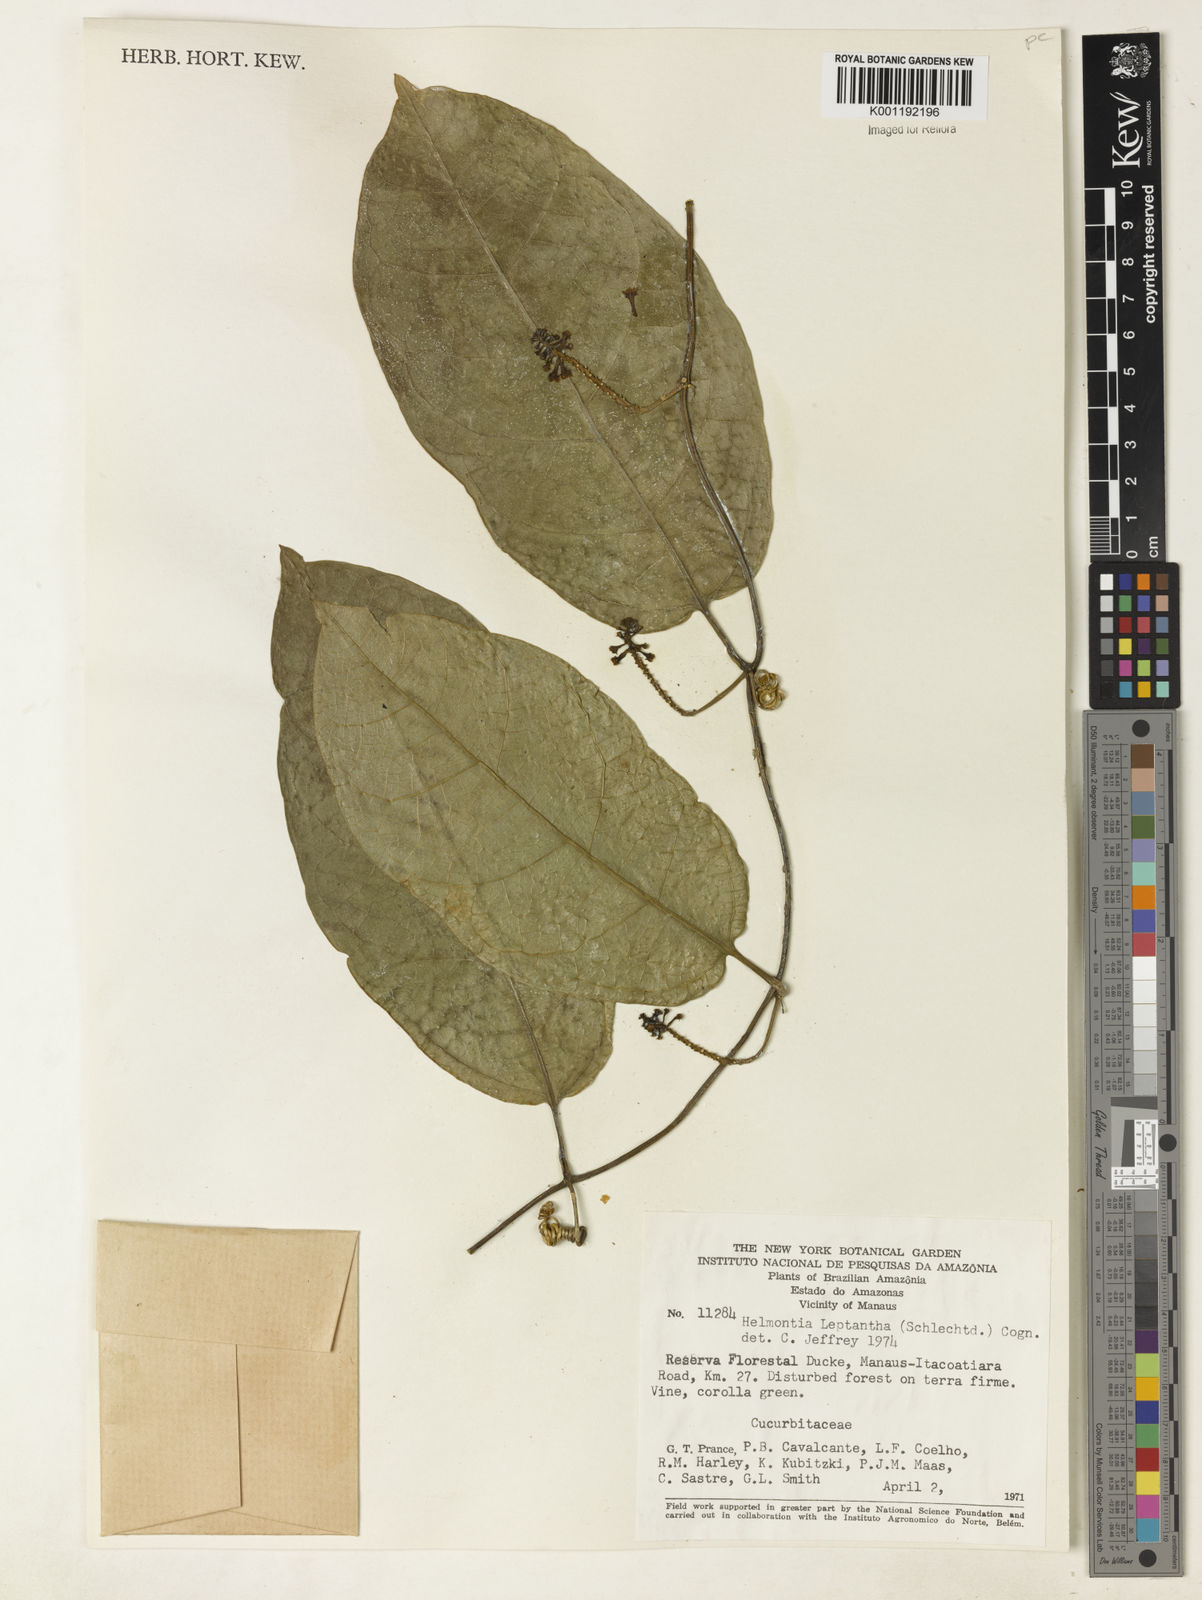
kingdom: Plantae
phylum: Tracheophyta
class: Magnoliopsida
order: Cucurbitales
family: Cucurbitaceae
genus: Helmontia
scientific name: Helmontia leptantha
